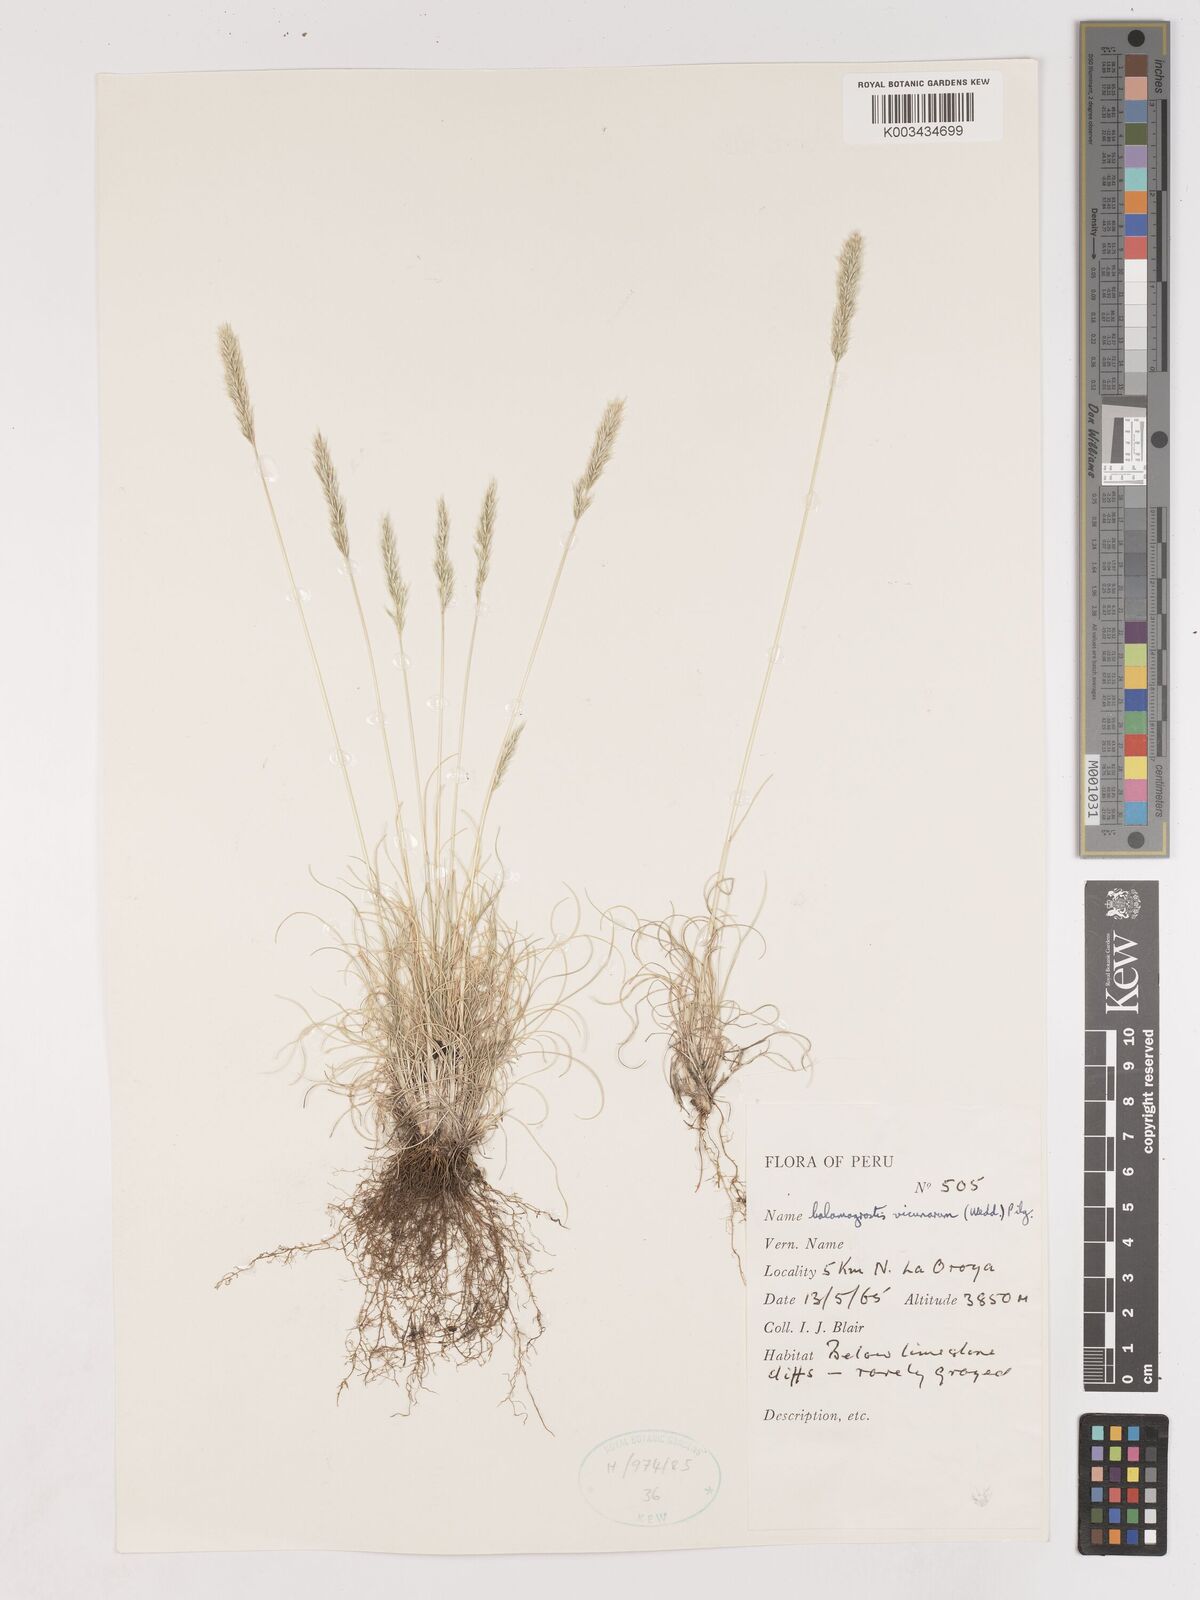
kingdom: Plantae
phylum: Tracheophyta
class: Liliopsida
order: Poales
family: Poaceae
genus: Cinnagrostis
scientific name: Cinnagrostis vicunarum
